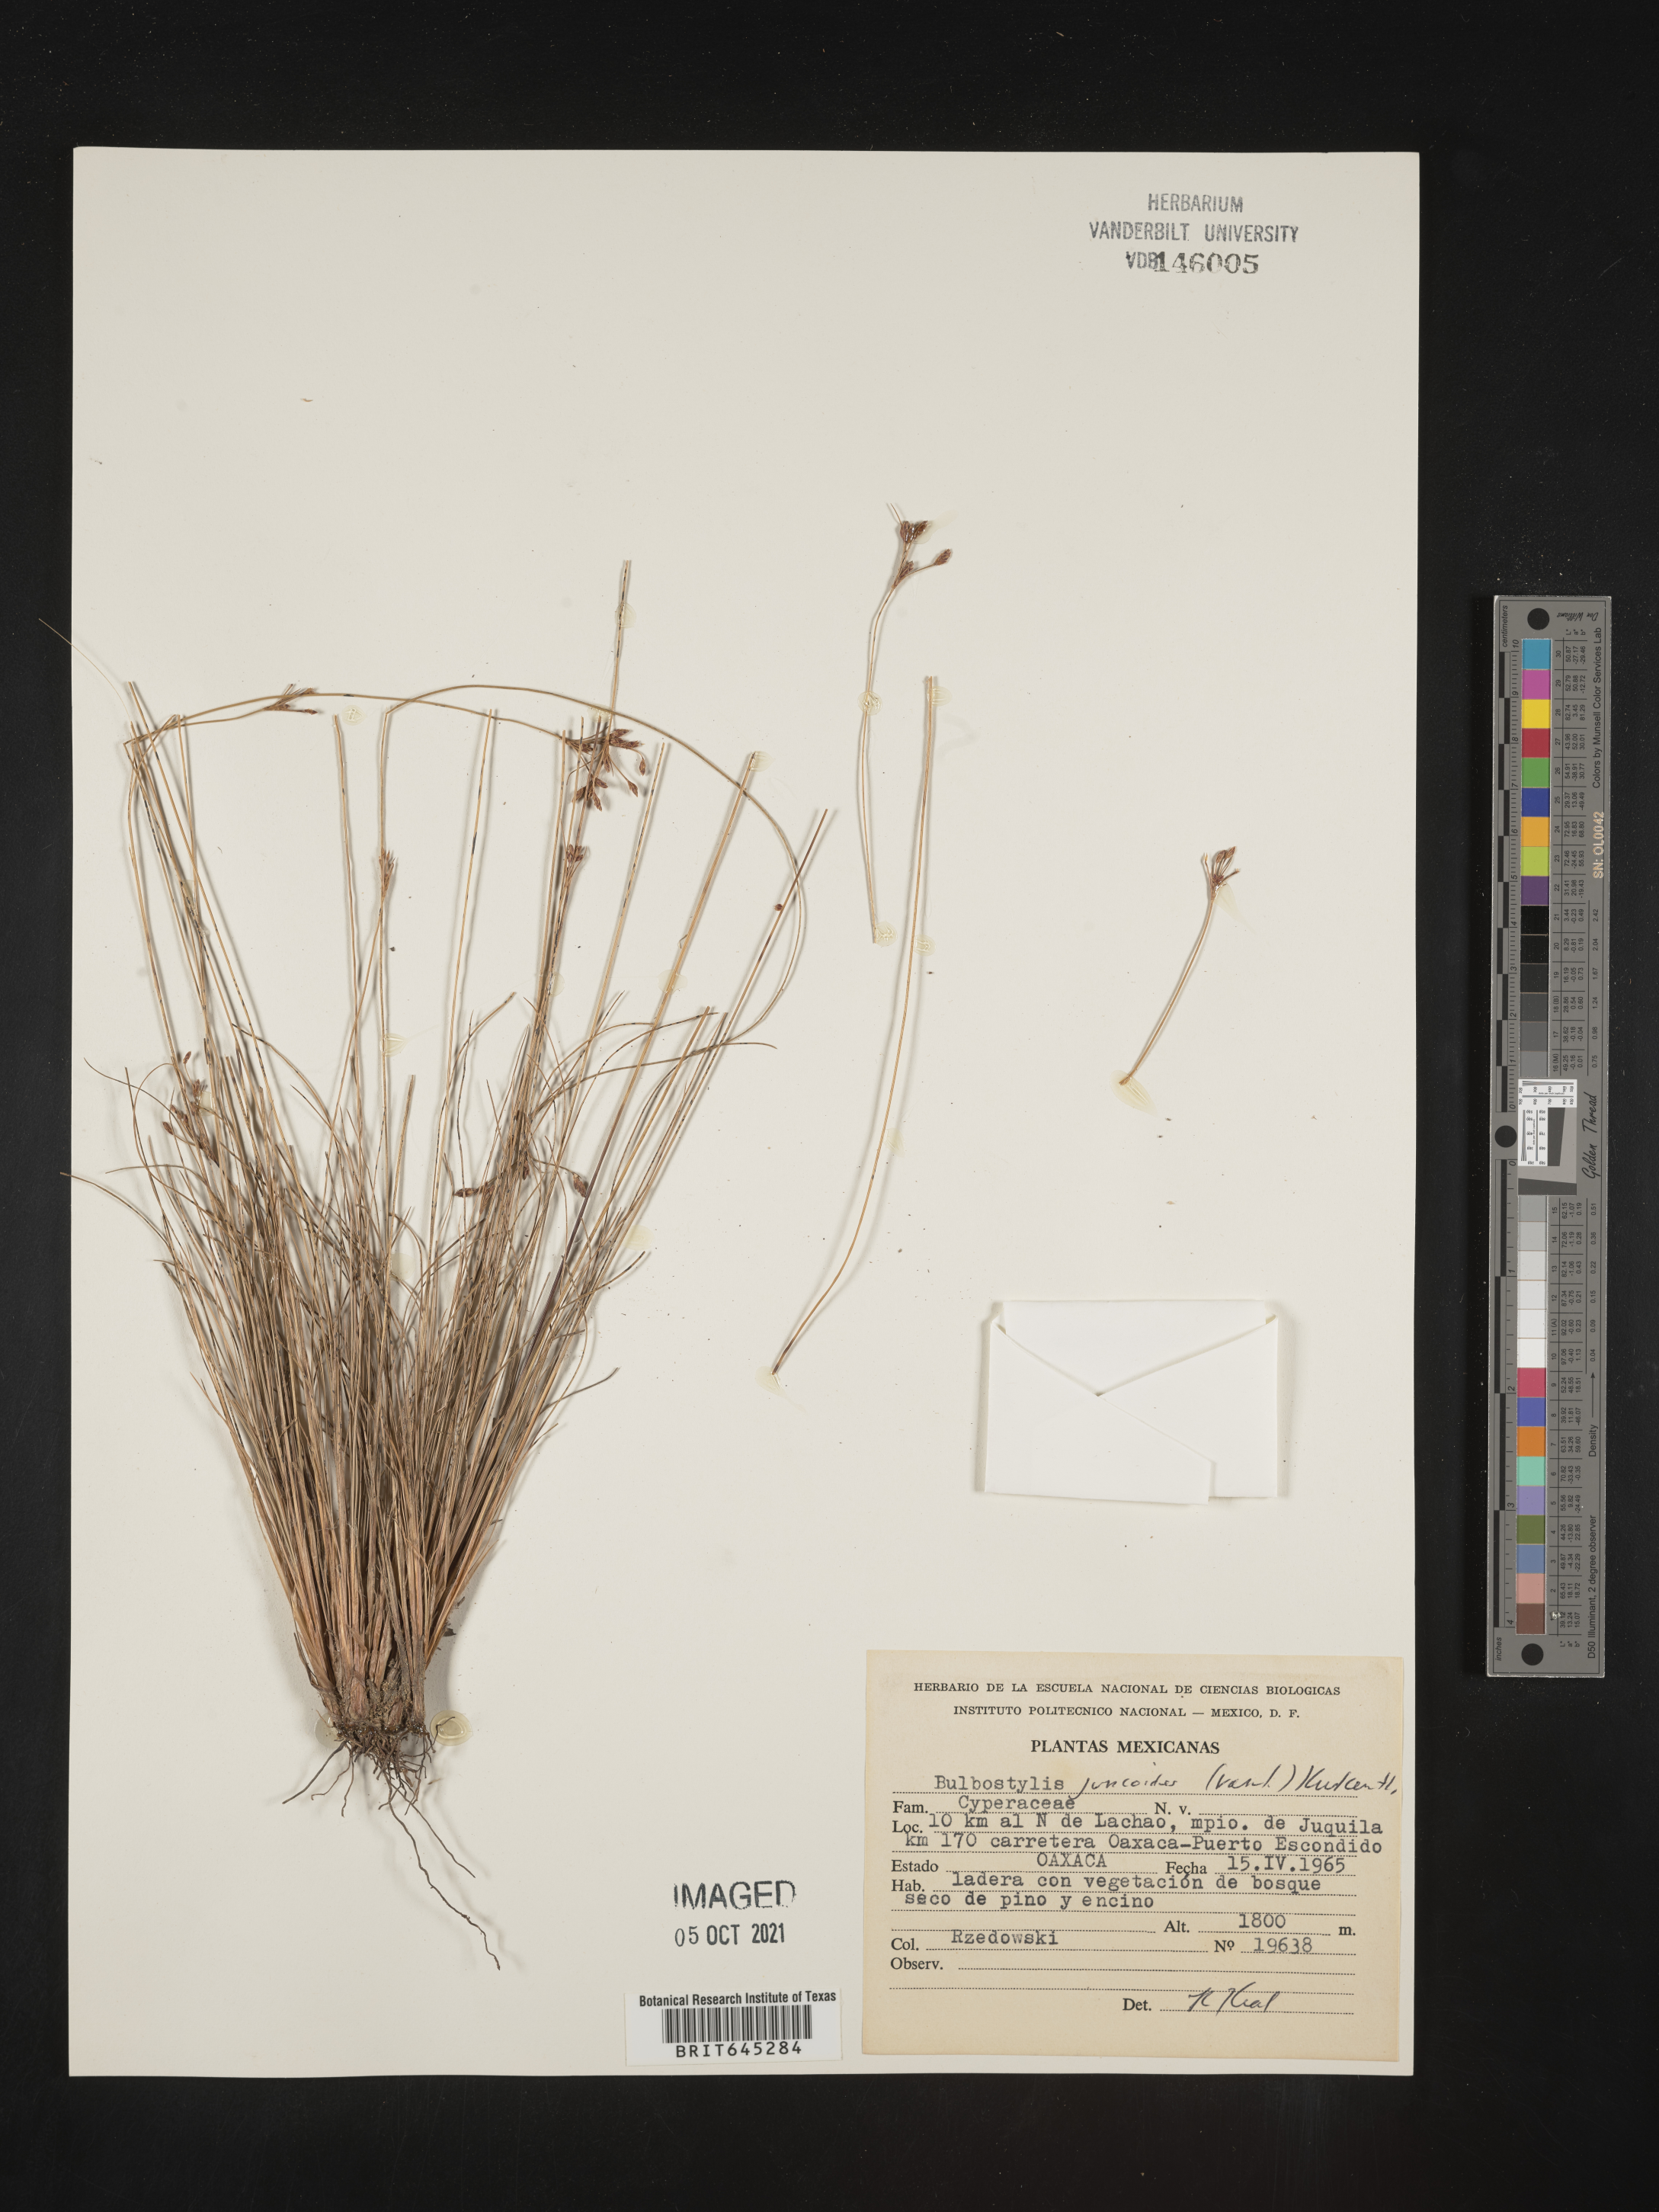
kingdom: Plantae
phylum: Tracheophyta
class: Liliopsida
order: Poales
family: Cyperaceae
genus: Bulbostylis
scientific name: Bulbostylis juncoides
